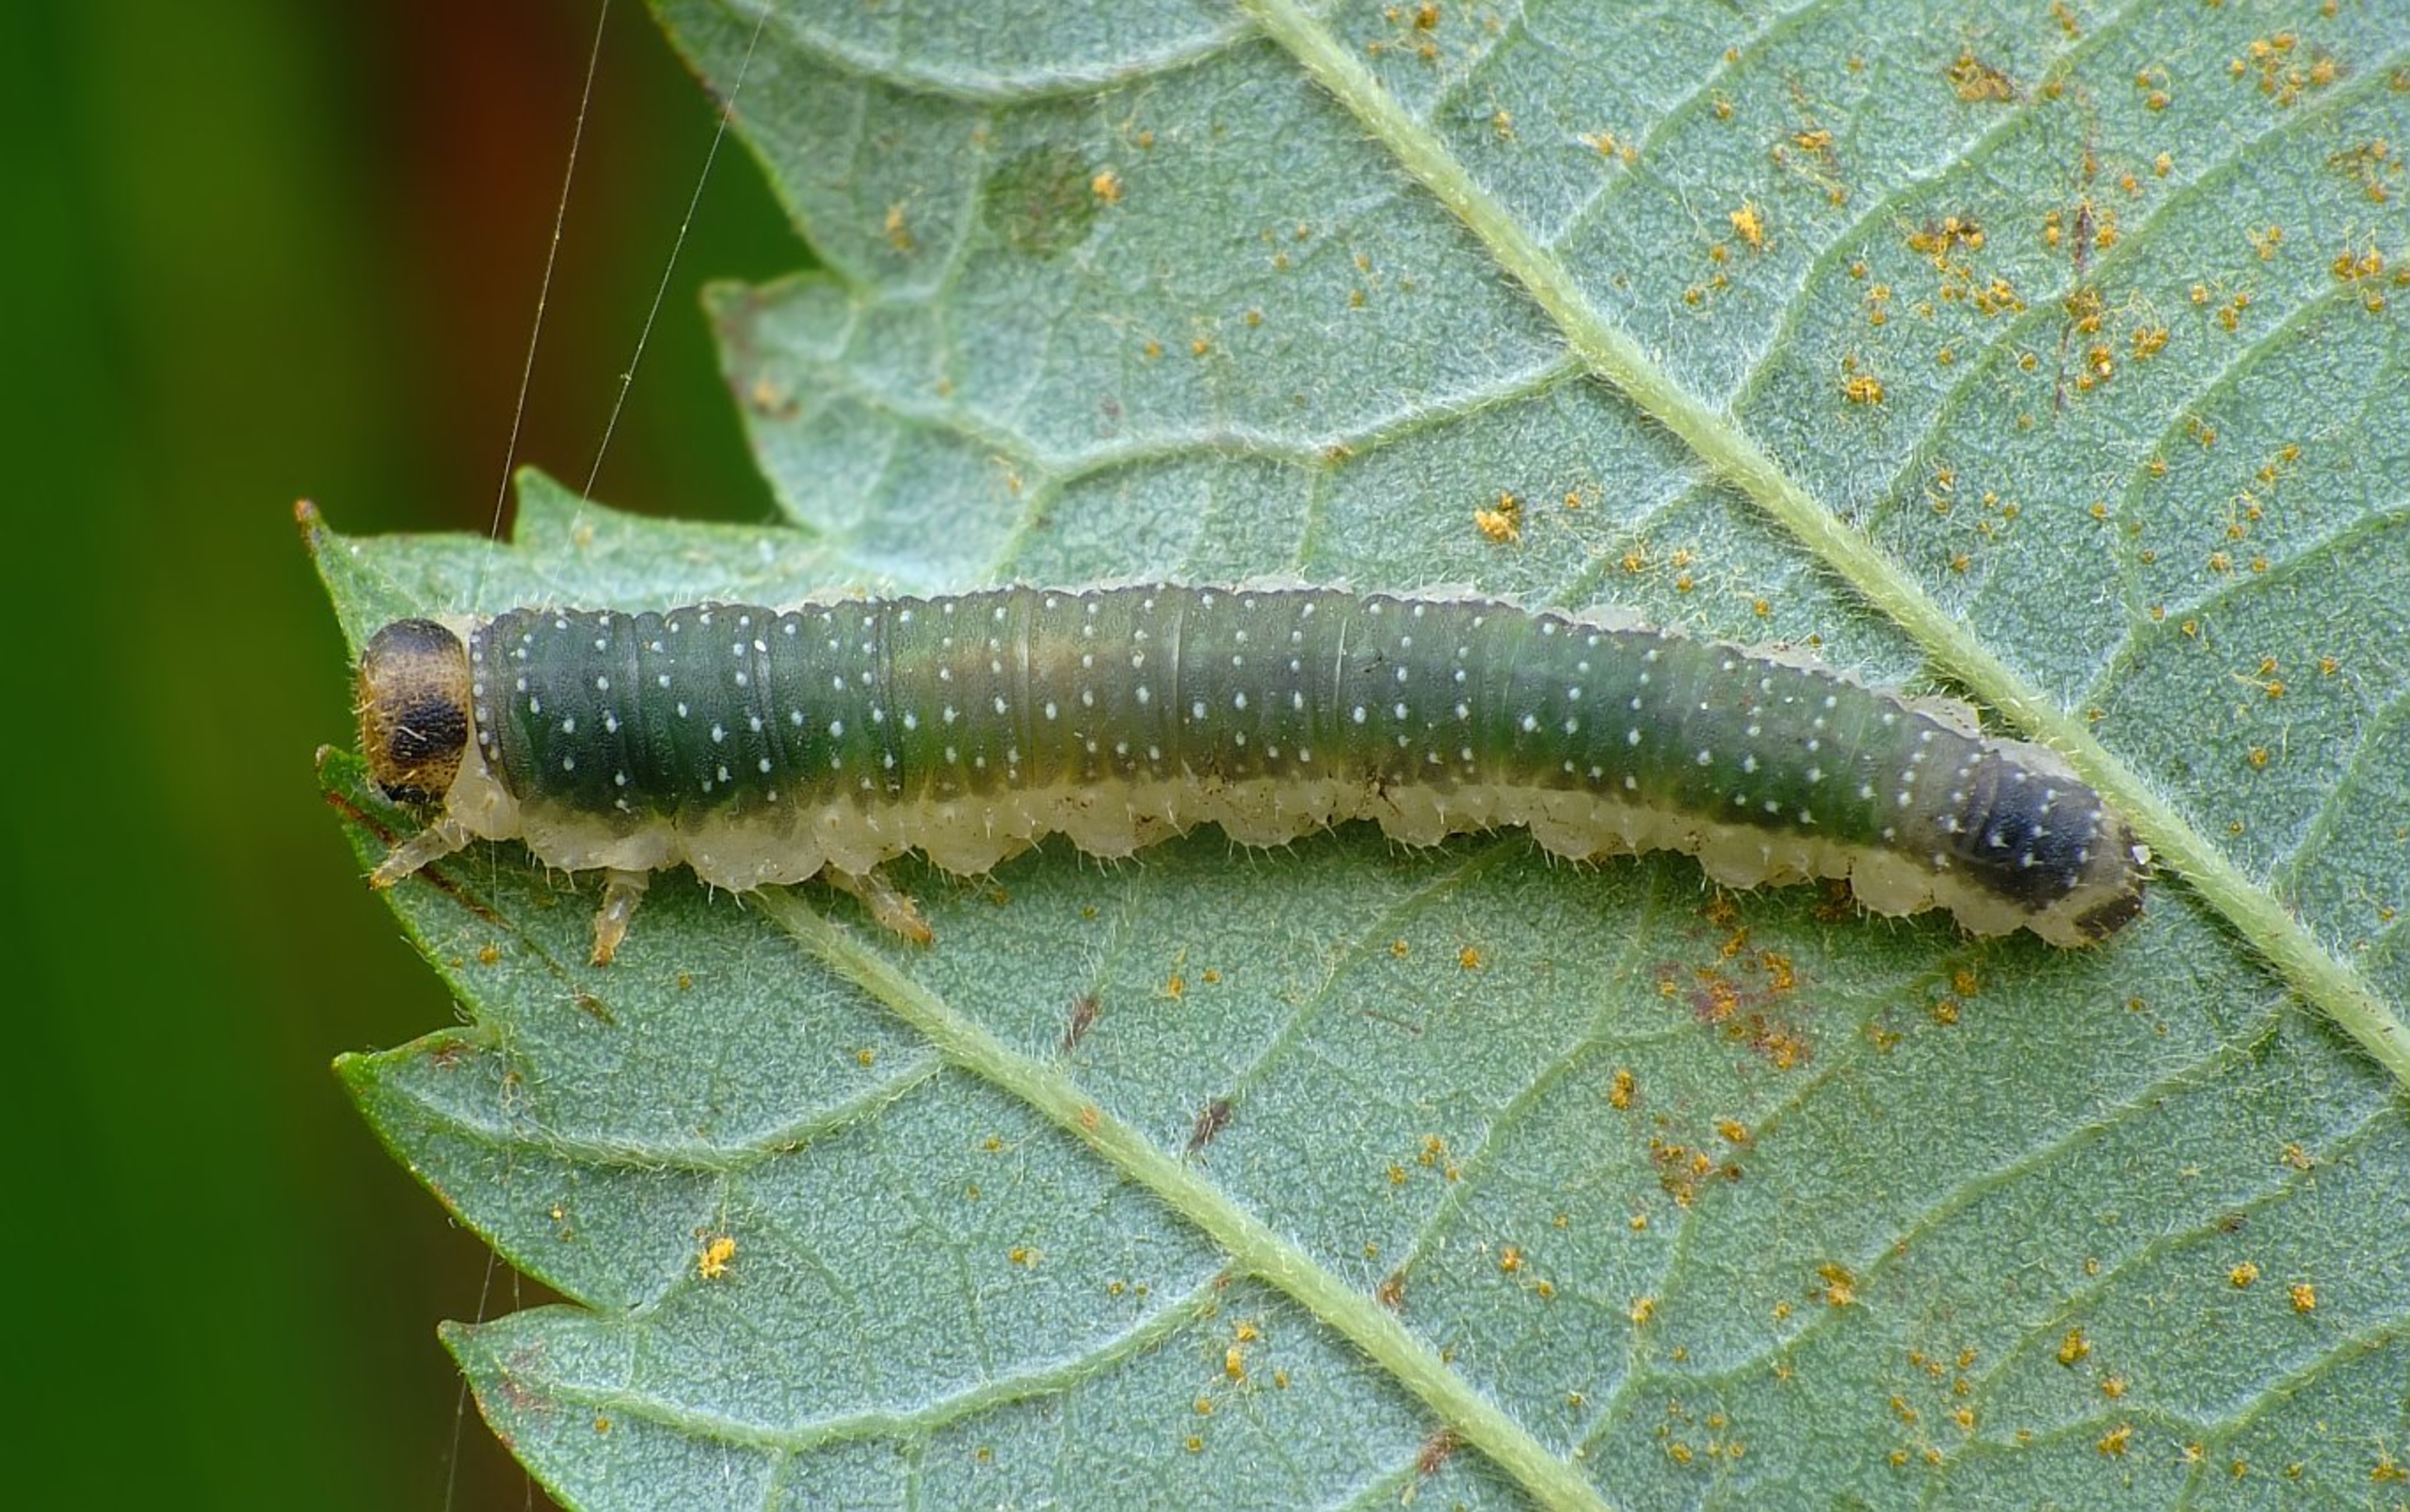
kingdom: Animalia
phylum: Arthropoda
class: Insecta
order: Hymenoptera
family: Tenthredinidae
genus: Nematinus
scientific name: Nematinus luteus
